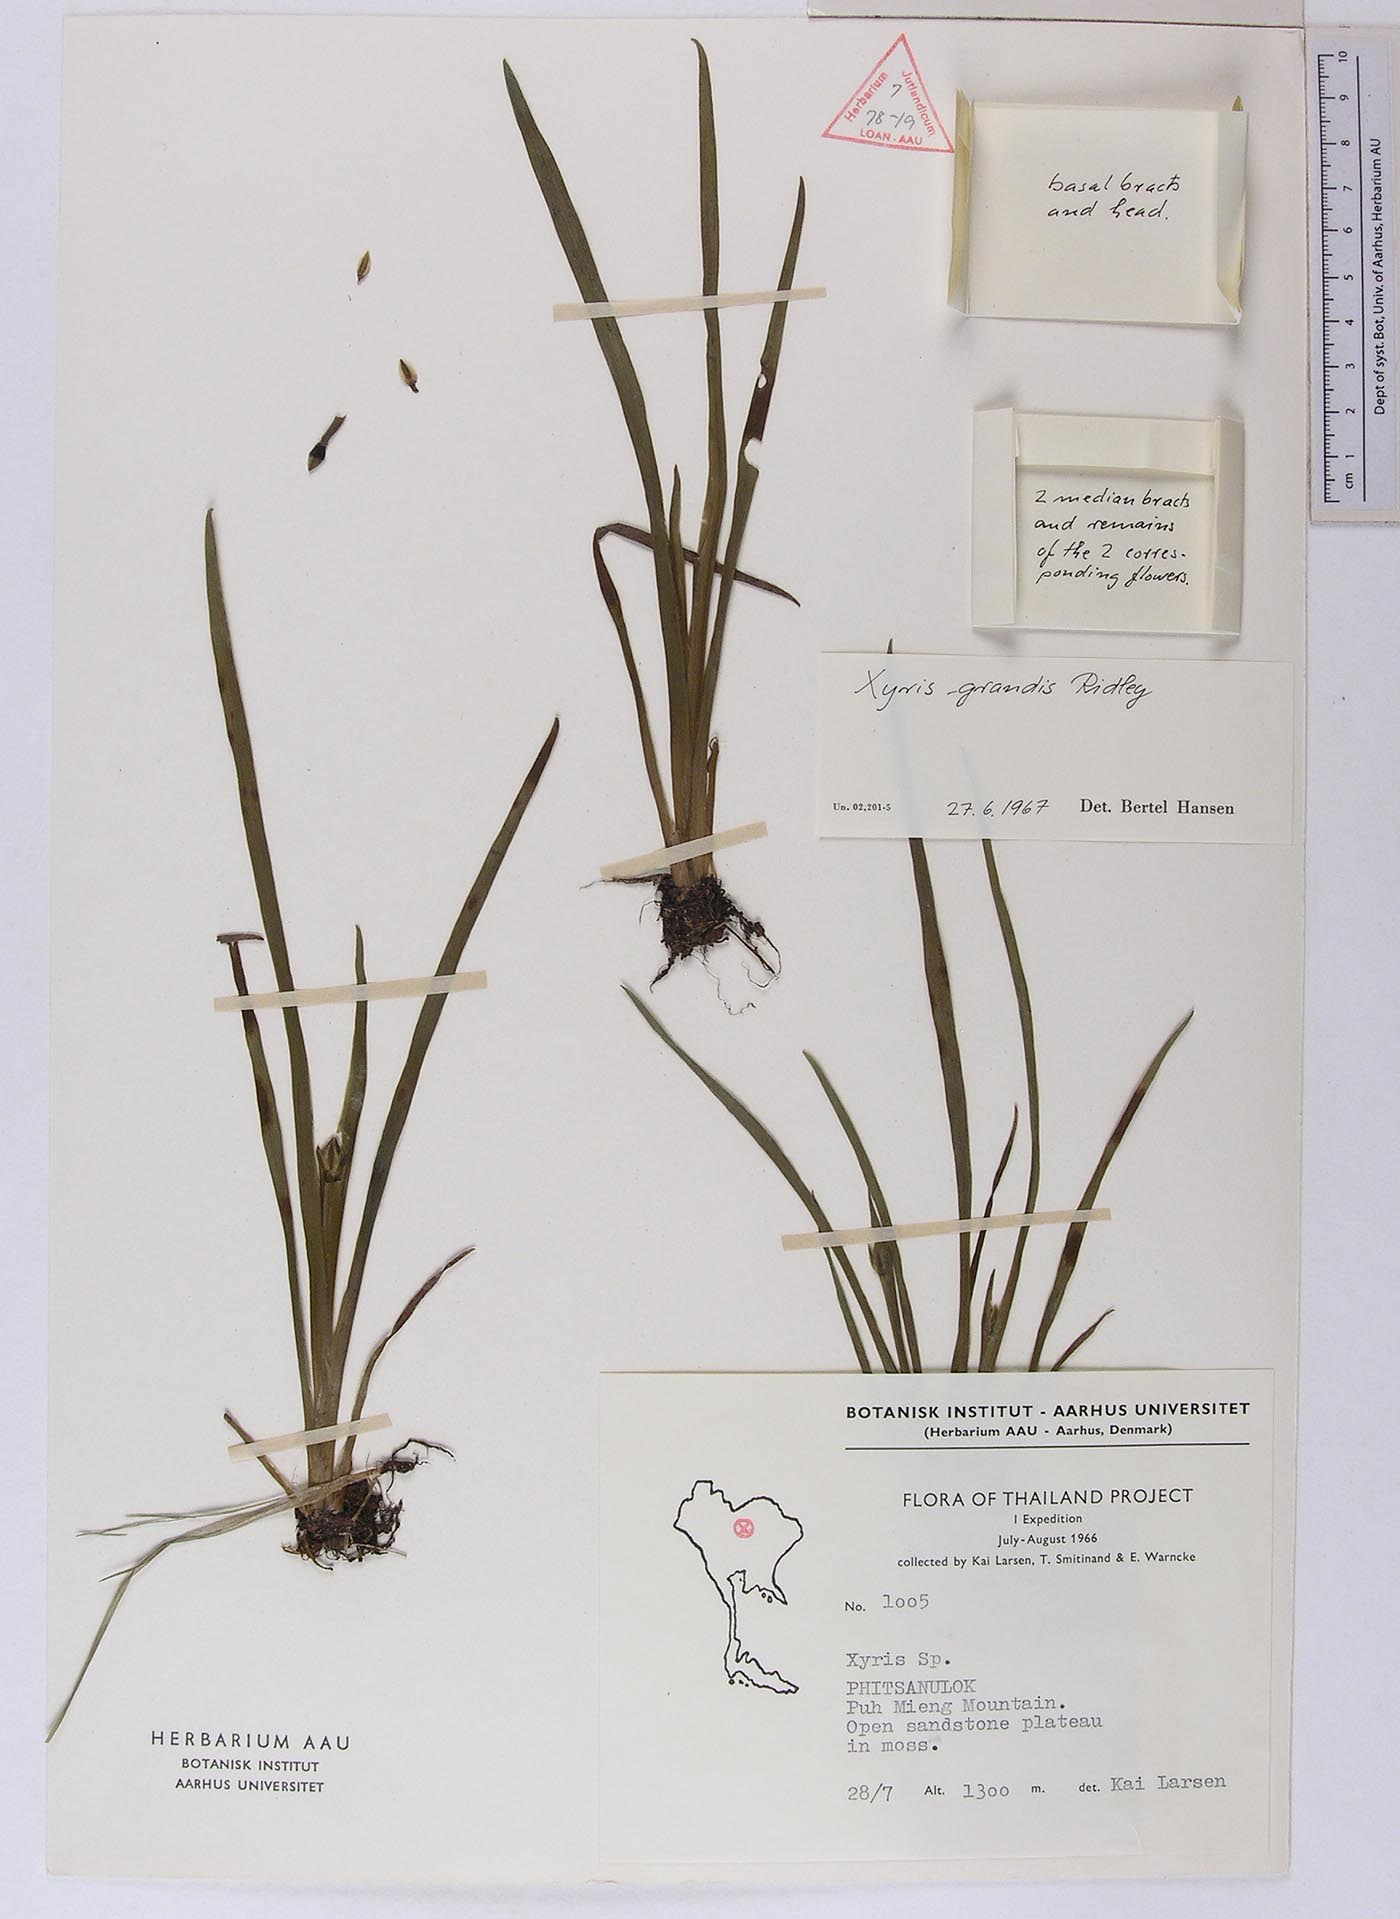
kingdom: Plantae
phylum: Tracheophyta
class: Liliopsida
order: Poales
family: Xyridaceae
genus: Xyris
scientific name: Xyris grandis
